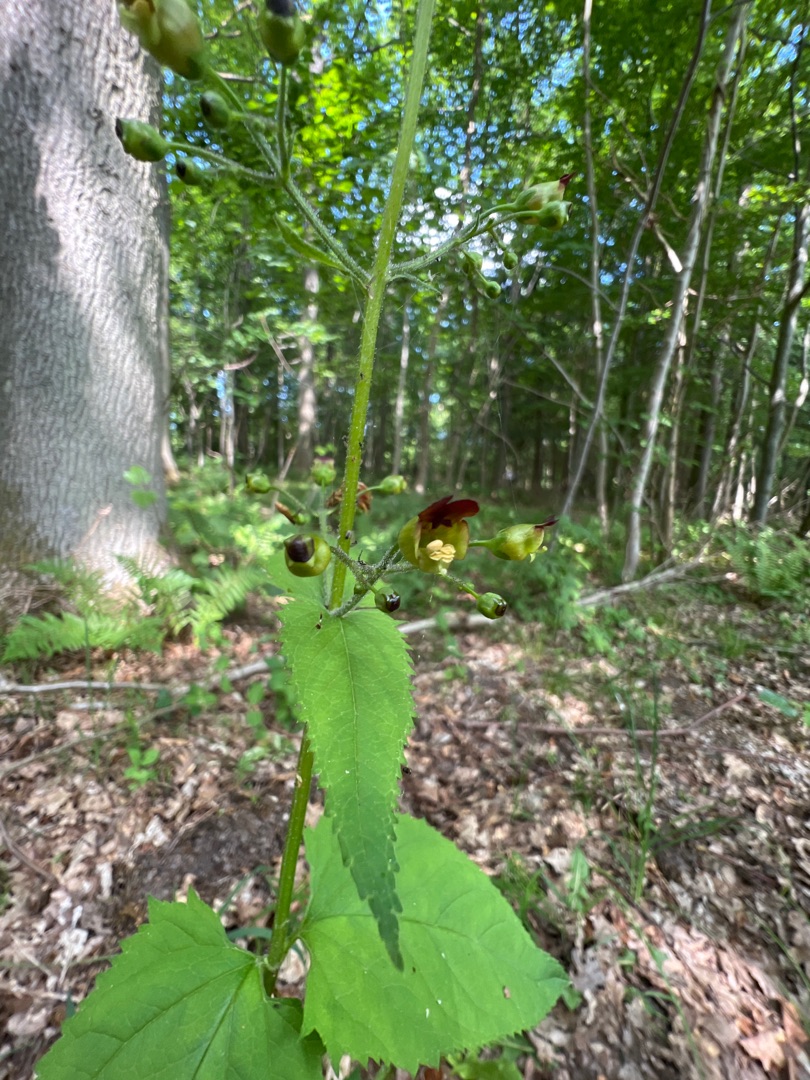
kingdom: Plantae
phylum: Tracheophyta
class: Magnoliopsida
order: Lamiales
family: Scrophulariaceae
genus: Scrophularia
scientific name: Scrophularia nodosa
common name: Knoldet brunrod
